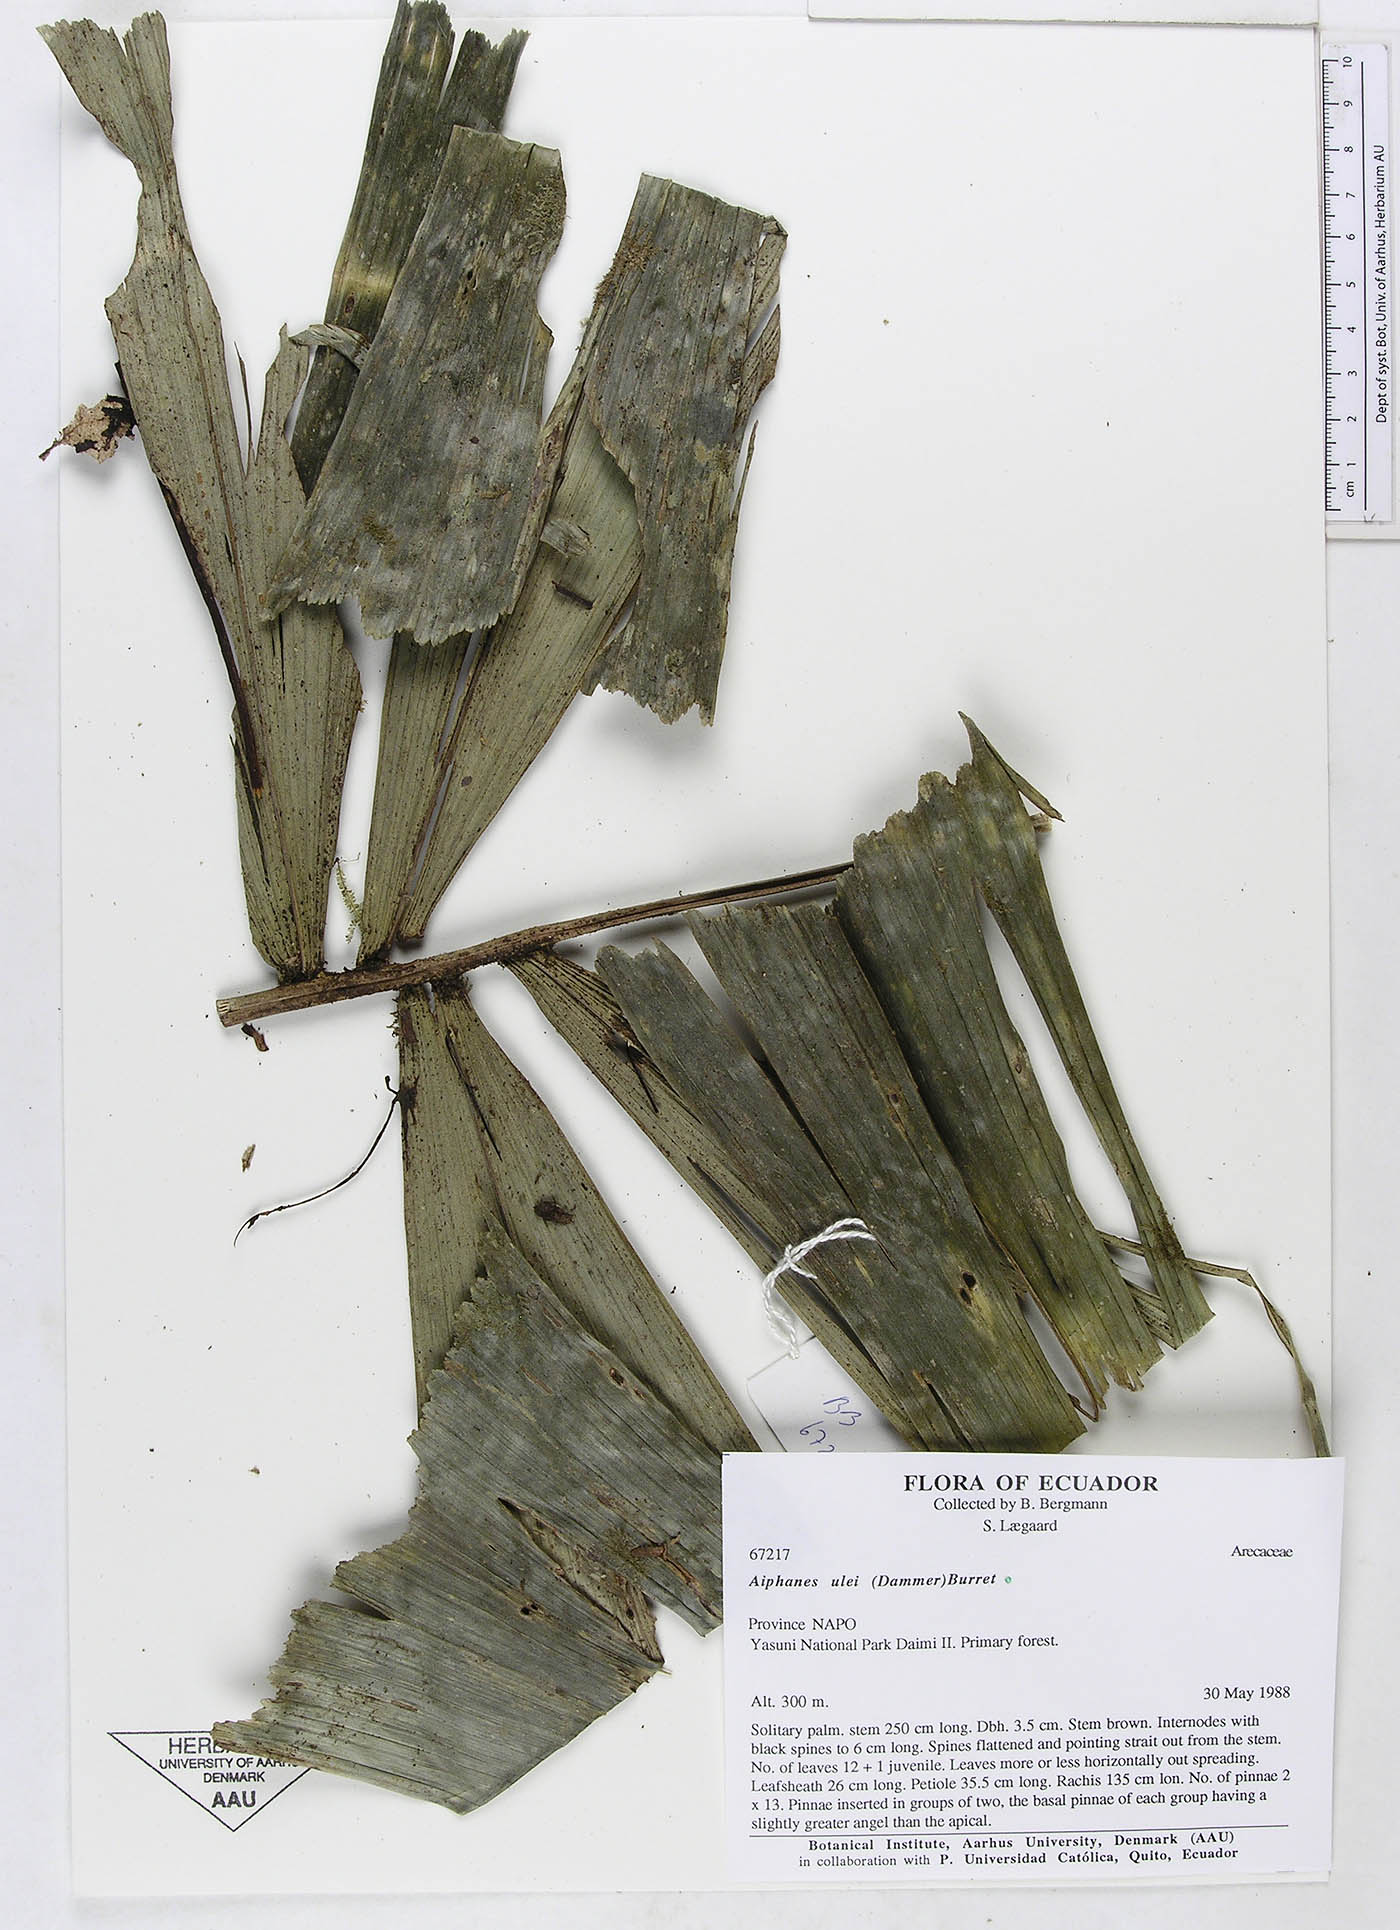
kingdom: Plantae
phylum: Tracheophyta
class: Liliopsida
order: Arecales
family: Arecaceae
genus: Aiphanes
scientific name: Aiphanes ulei
